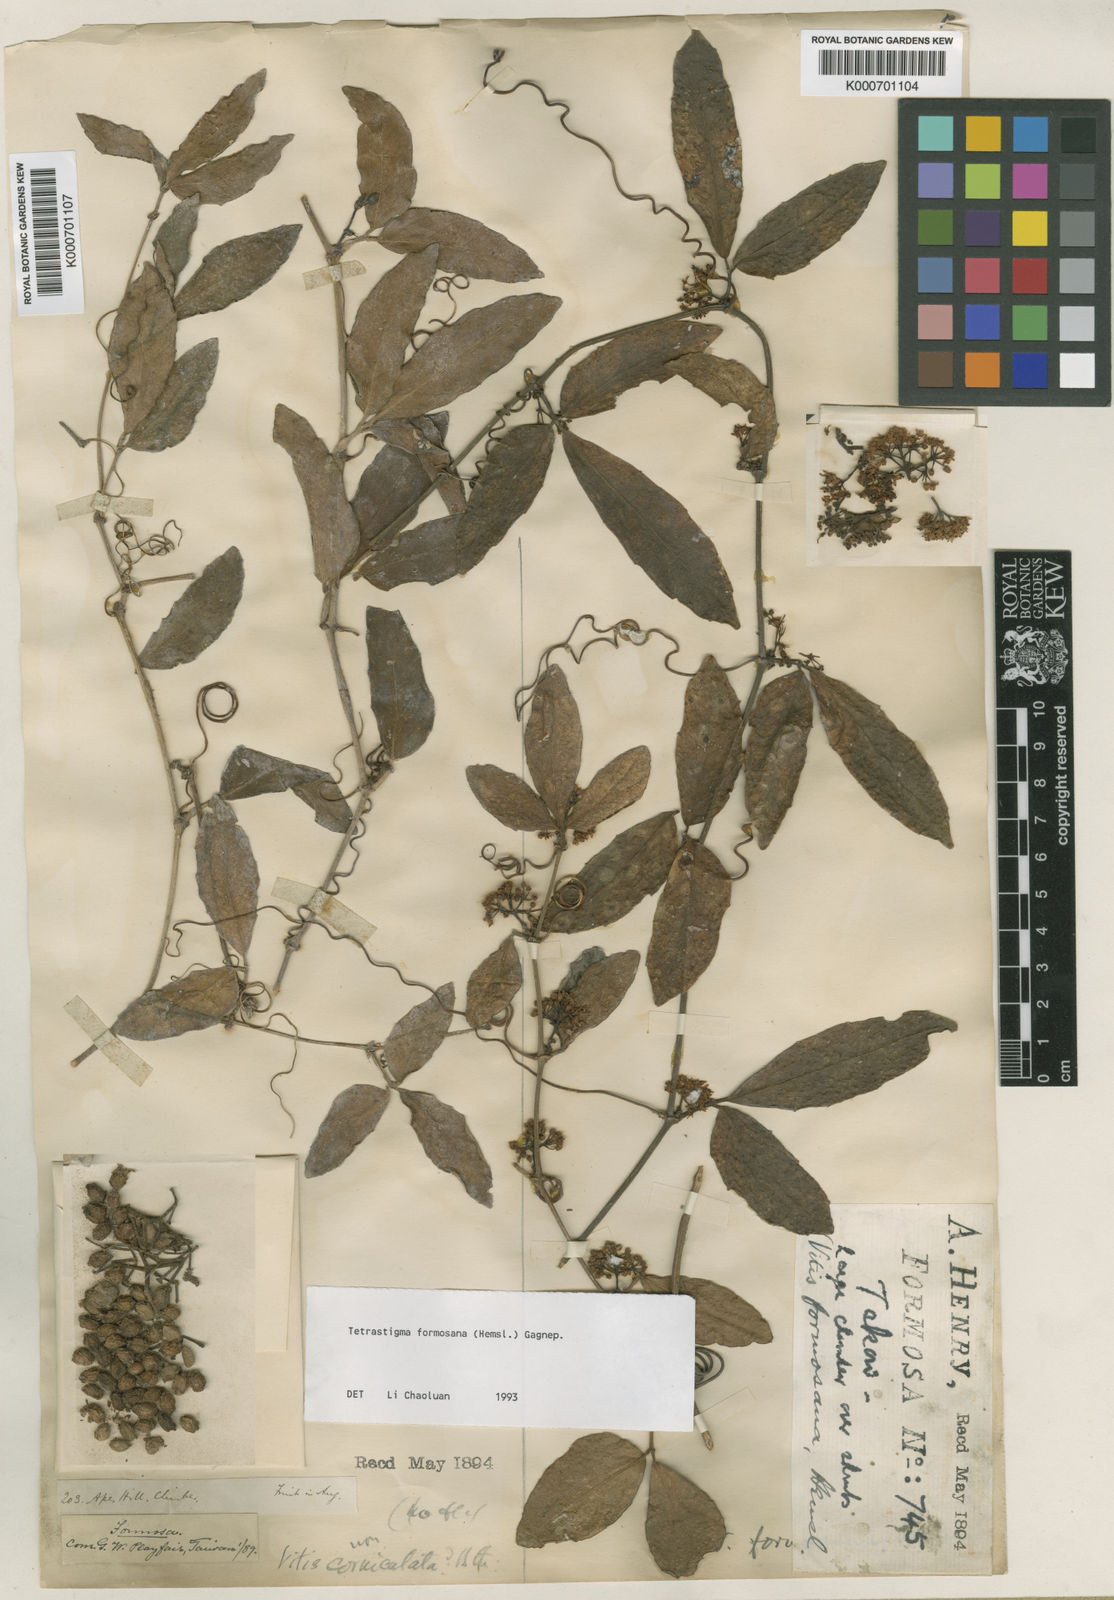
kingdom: Plantae
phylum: Tracheophyta
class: Magnoliopsida
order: Vitales
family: Vitaceae
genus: Tetrastigma
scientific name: Tetrastigma formosanum
